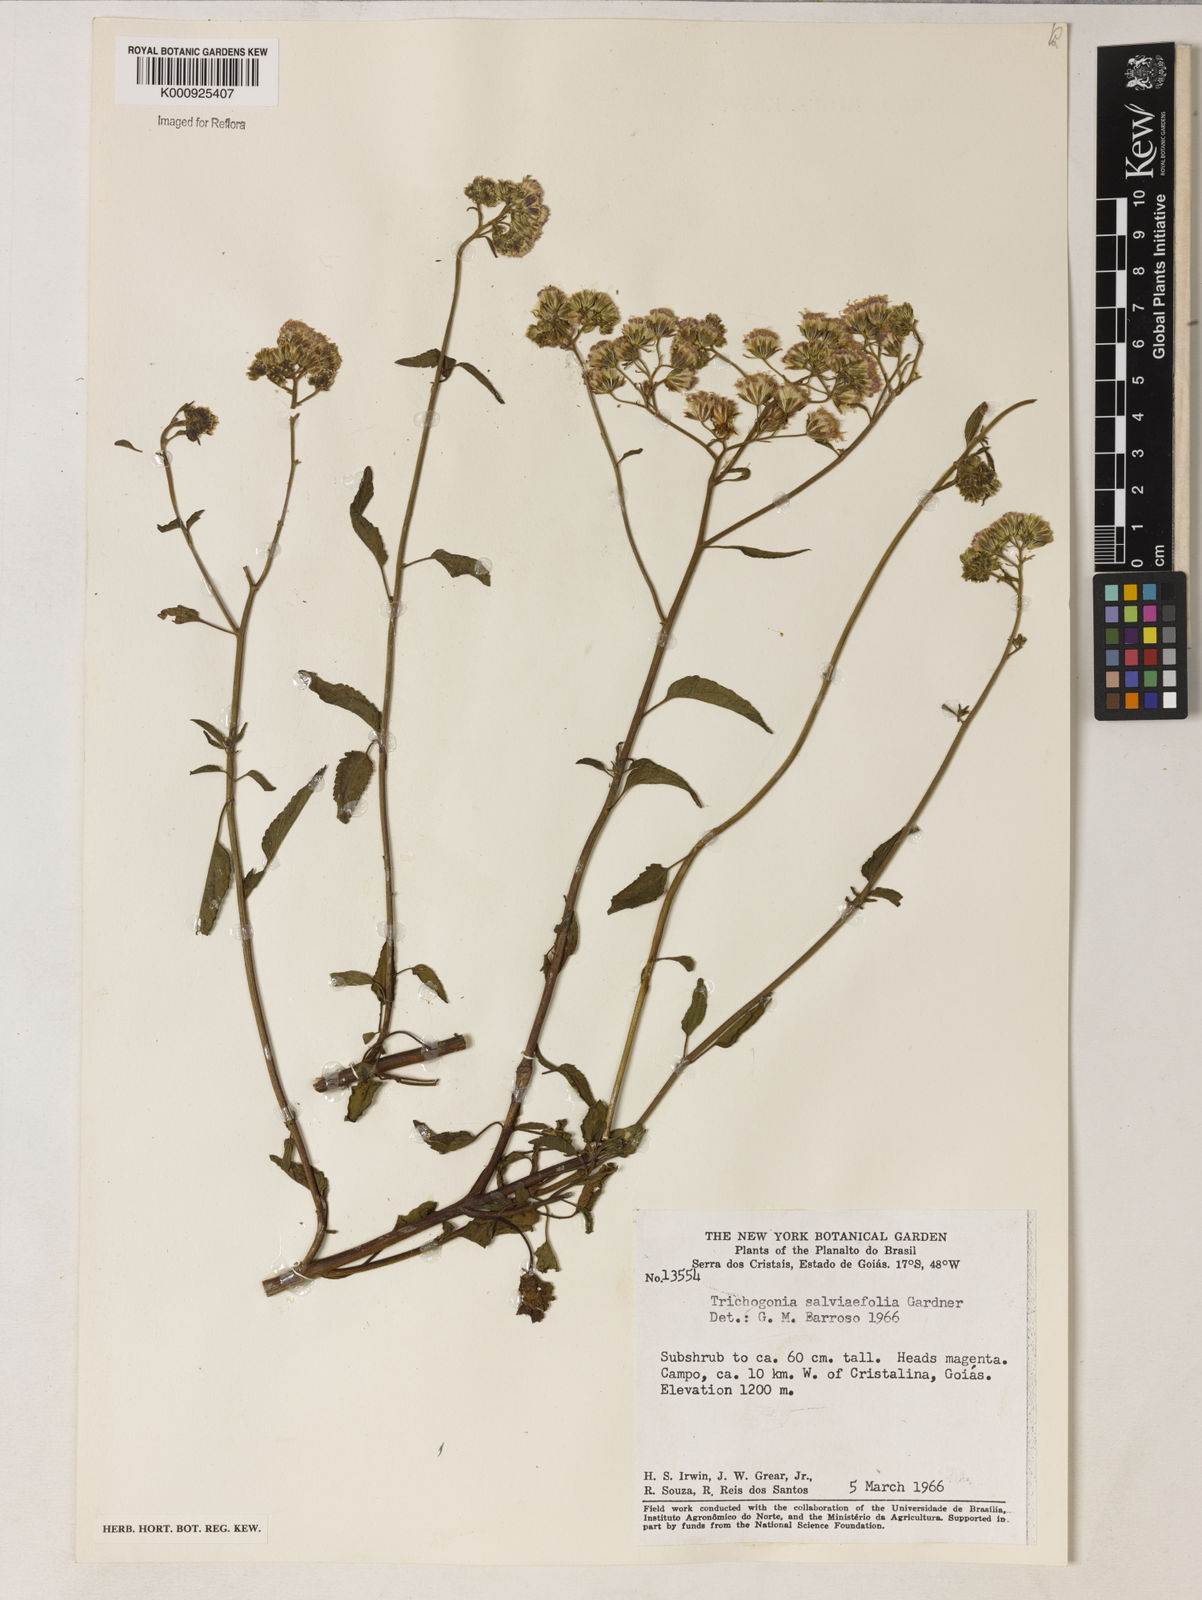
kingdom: Plantae
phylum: Tracheophyta
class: Magnoliopsida
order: Asterales
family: Asteraceae
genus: Trichogonia
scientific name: Trichogonia
